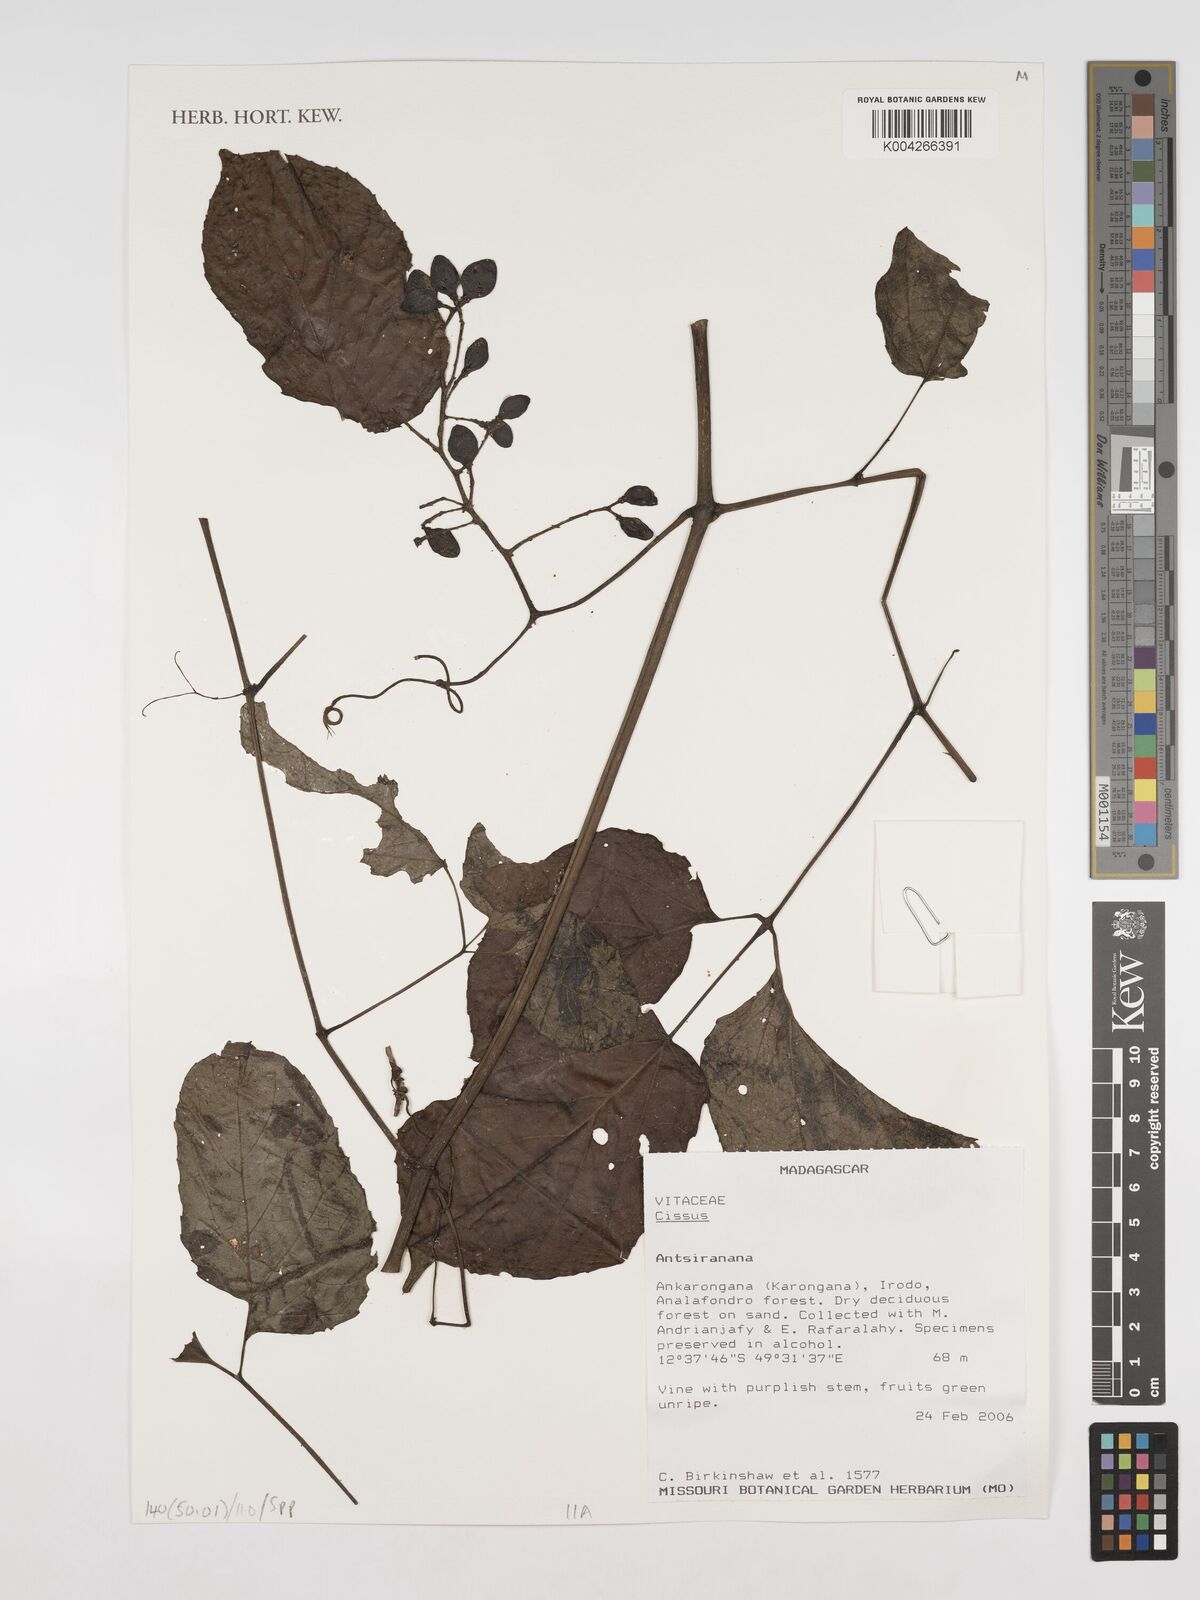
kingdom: Plantae
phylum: Tracheophyta
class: Magnoliopsida
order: Vitales
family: Vitaceae
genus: Cissus
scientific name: Cissus
